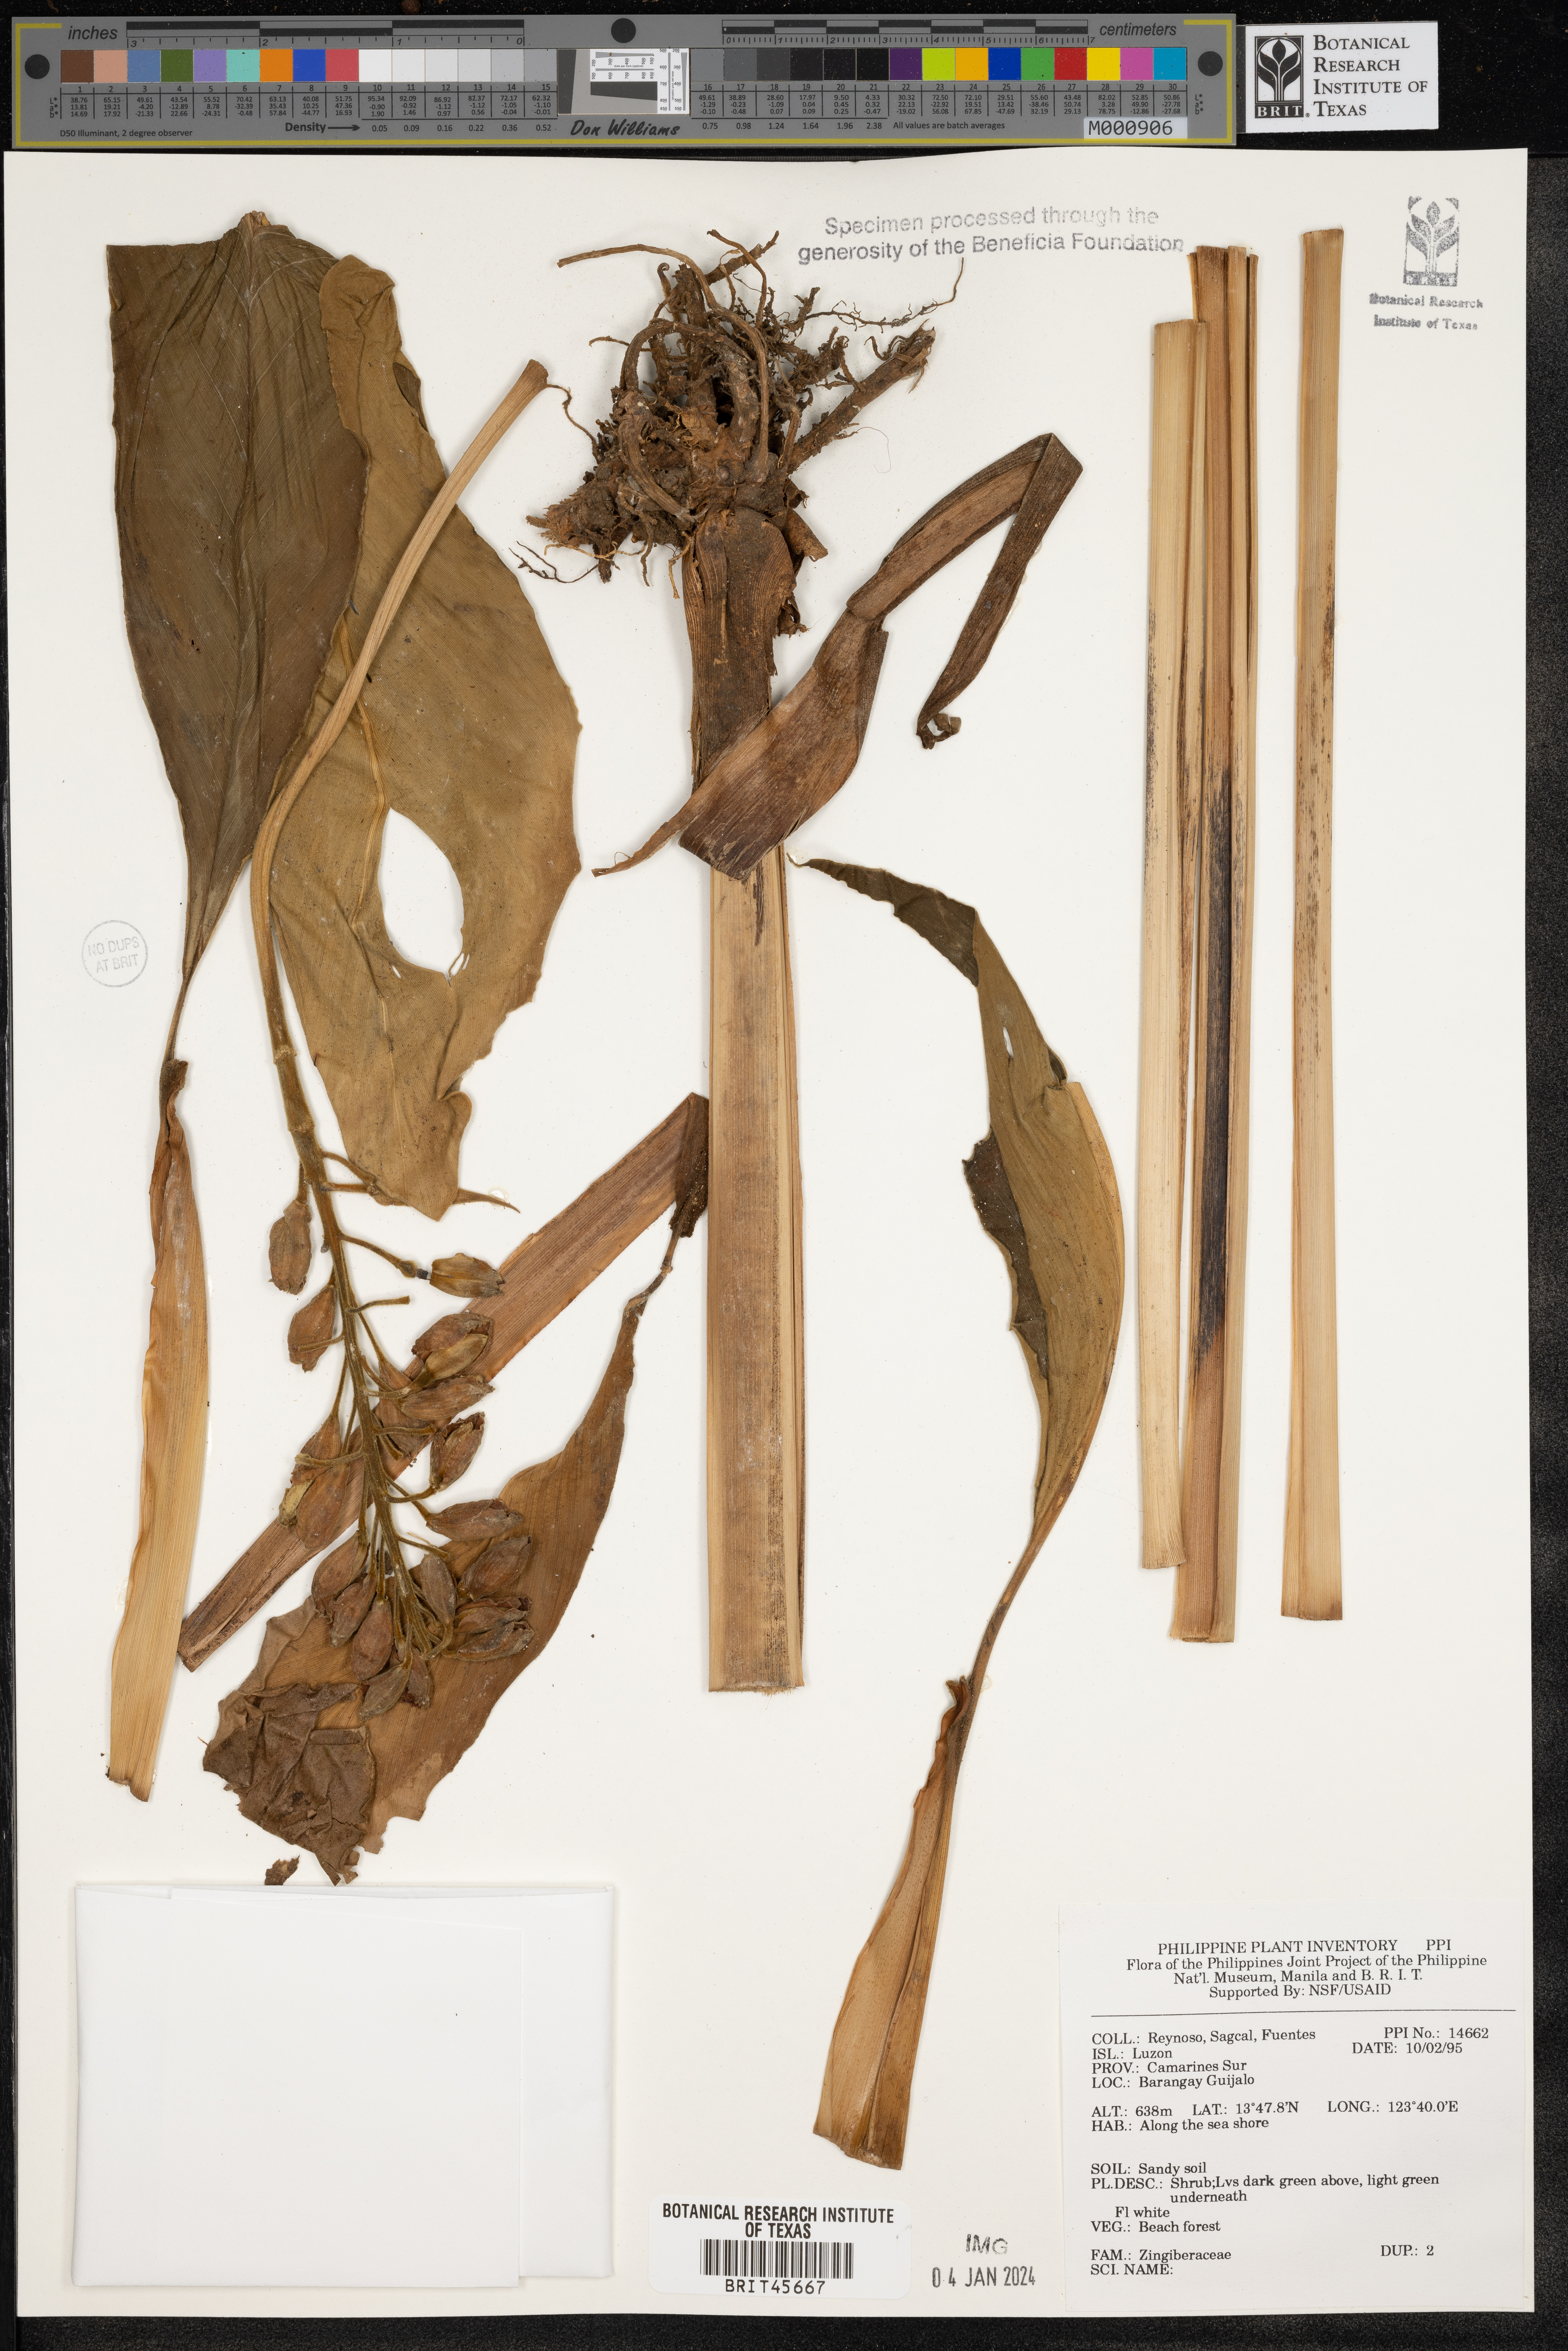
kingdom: Plantae
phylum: Tracheophyta
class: Liliopsida
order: Zingiberales
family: Zingiberaceae
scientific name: Zingiberaceae
